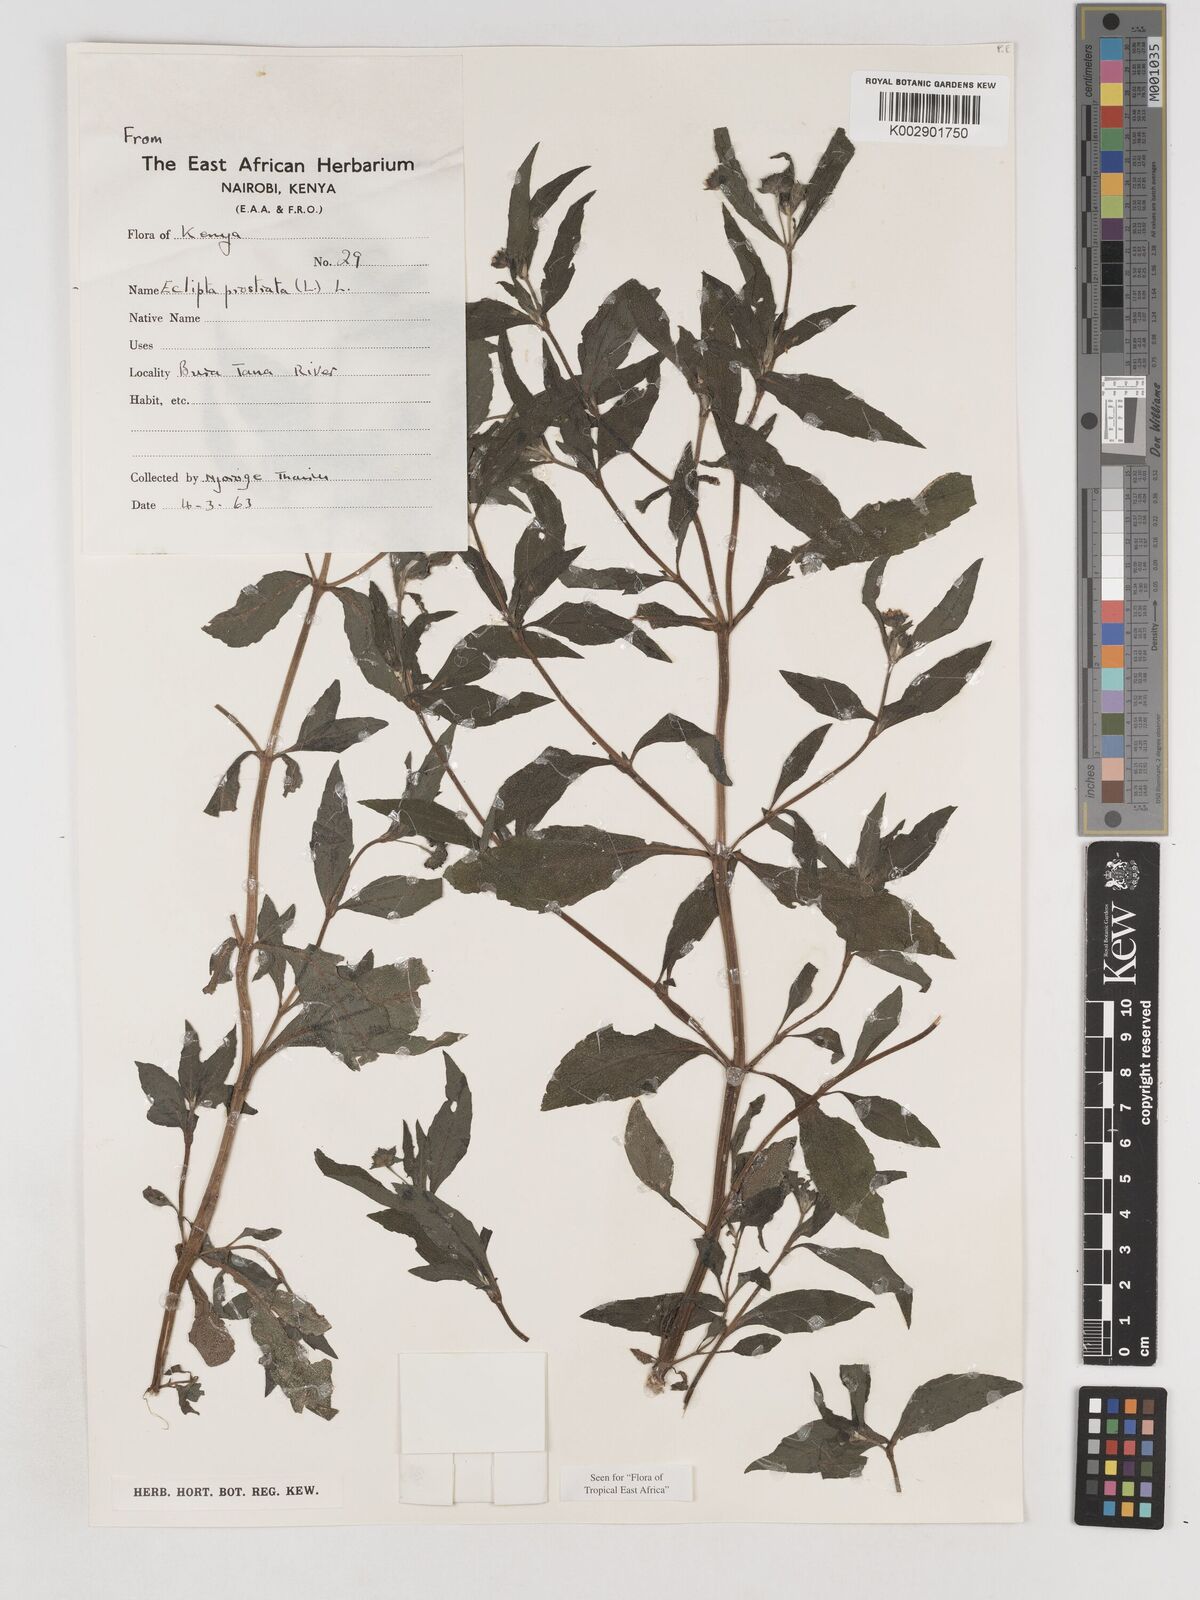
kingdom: Plantae
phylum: Tracheophyta
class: Magnoliopsida
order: Asterales
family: Asteraceae
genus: Eclipta
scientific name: Eclipta prostrata
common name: False daisy
